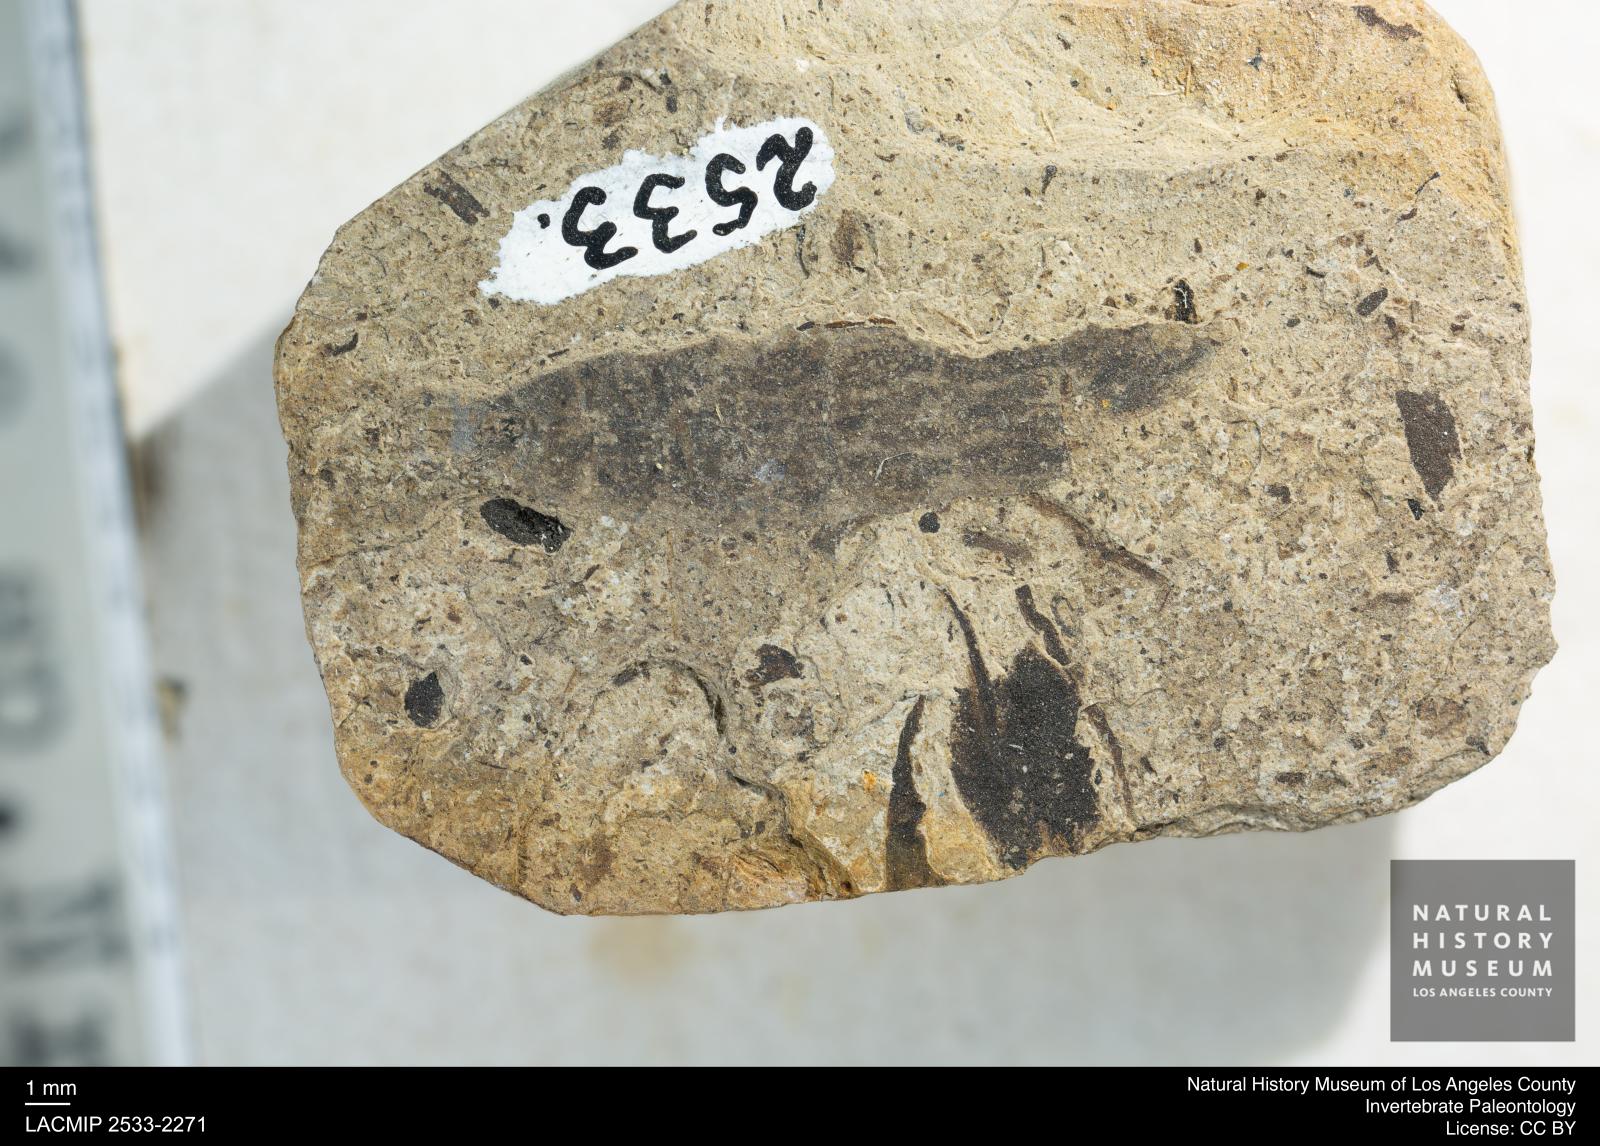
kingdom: Animalia
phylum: Arthropoda
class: Insecta
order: Diptera
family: Stratiomyidae
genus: Odontomyia
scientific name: Odontomyia
